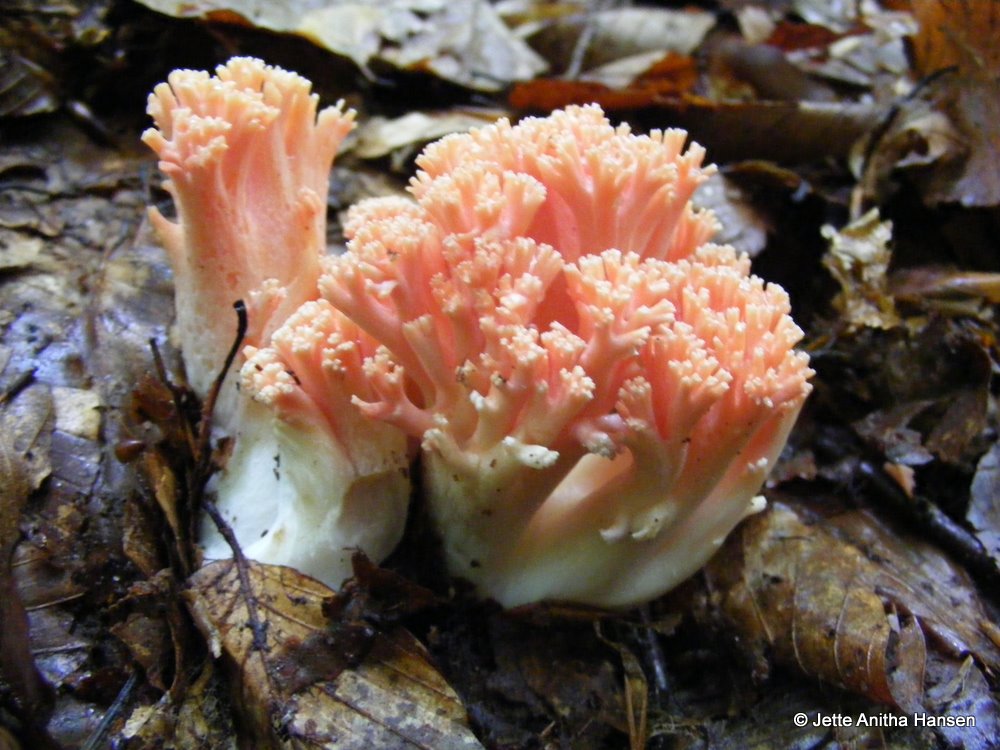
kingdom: Fungi
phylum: Basidiomycota
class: Agaricomycetes
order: Gomphales
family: Gomphaceae
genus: Ramaria
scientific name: Ramaria fagetorum
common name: abrikos-koralsvamp
